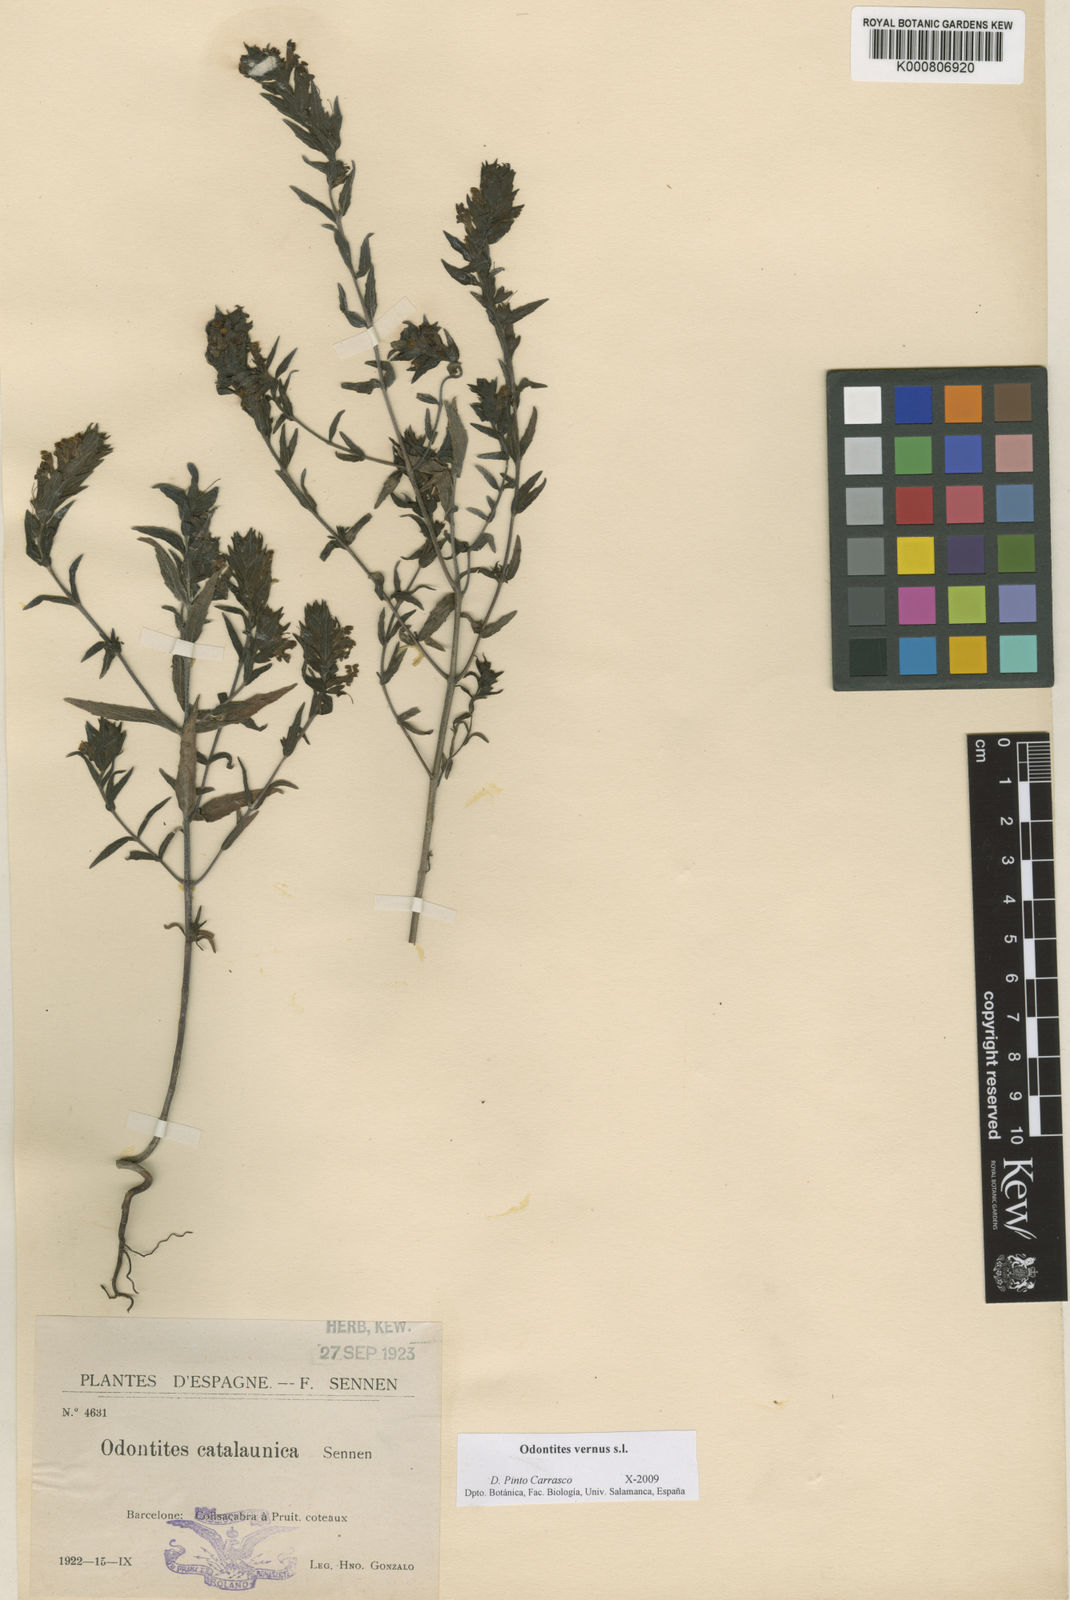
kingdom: Plantae
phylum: Tracheophyta
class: Magnoliopsida
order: Lamiales
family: Orobanchaceae
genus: Odontites
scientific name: Odontites vernus
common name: Red bartsia
